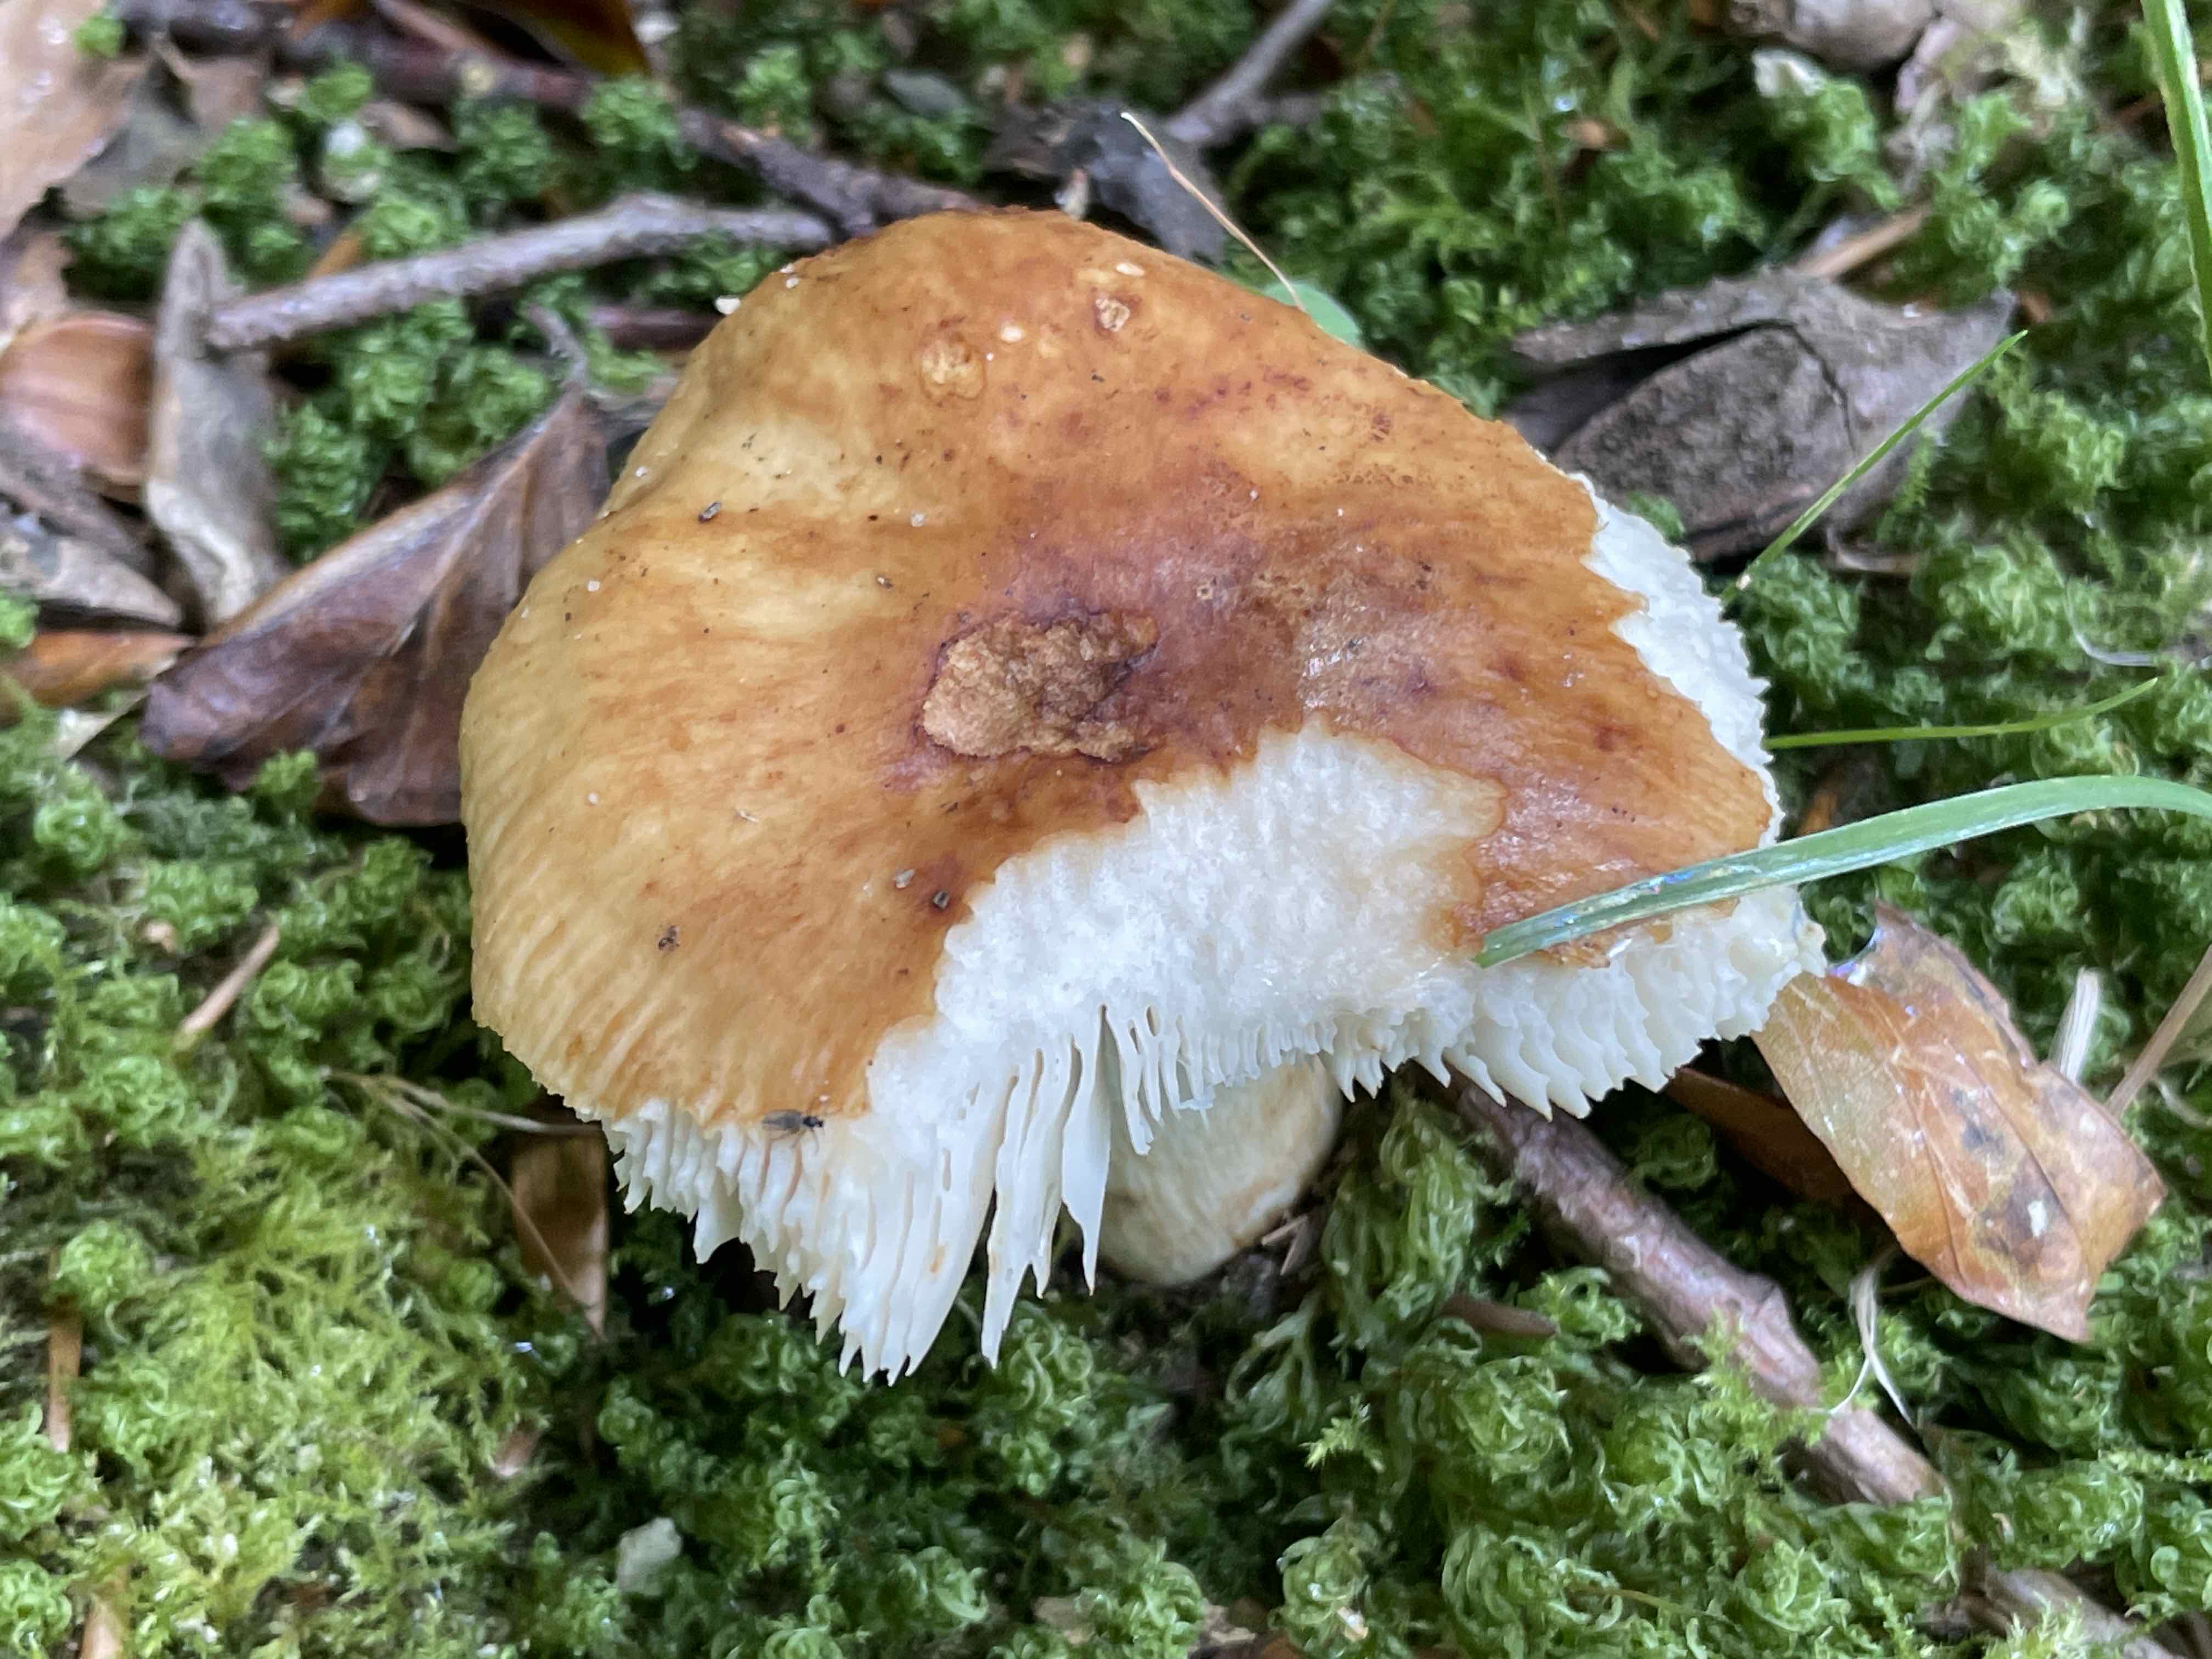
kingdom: Fungi
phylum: Basidiomycota
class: Agaricomycetes
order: Russulales
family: Russulaceae
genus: Russula
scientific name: Russula grata
